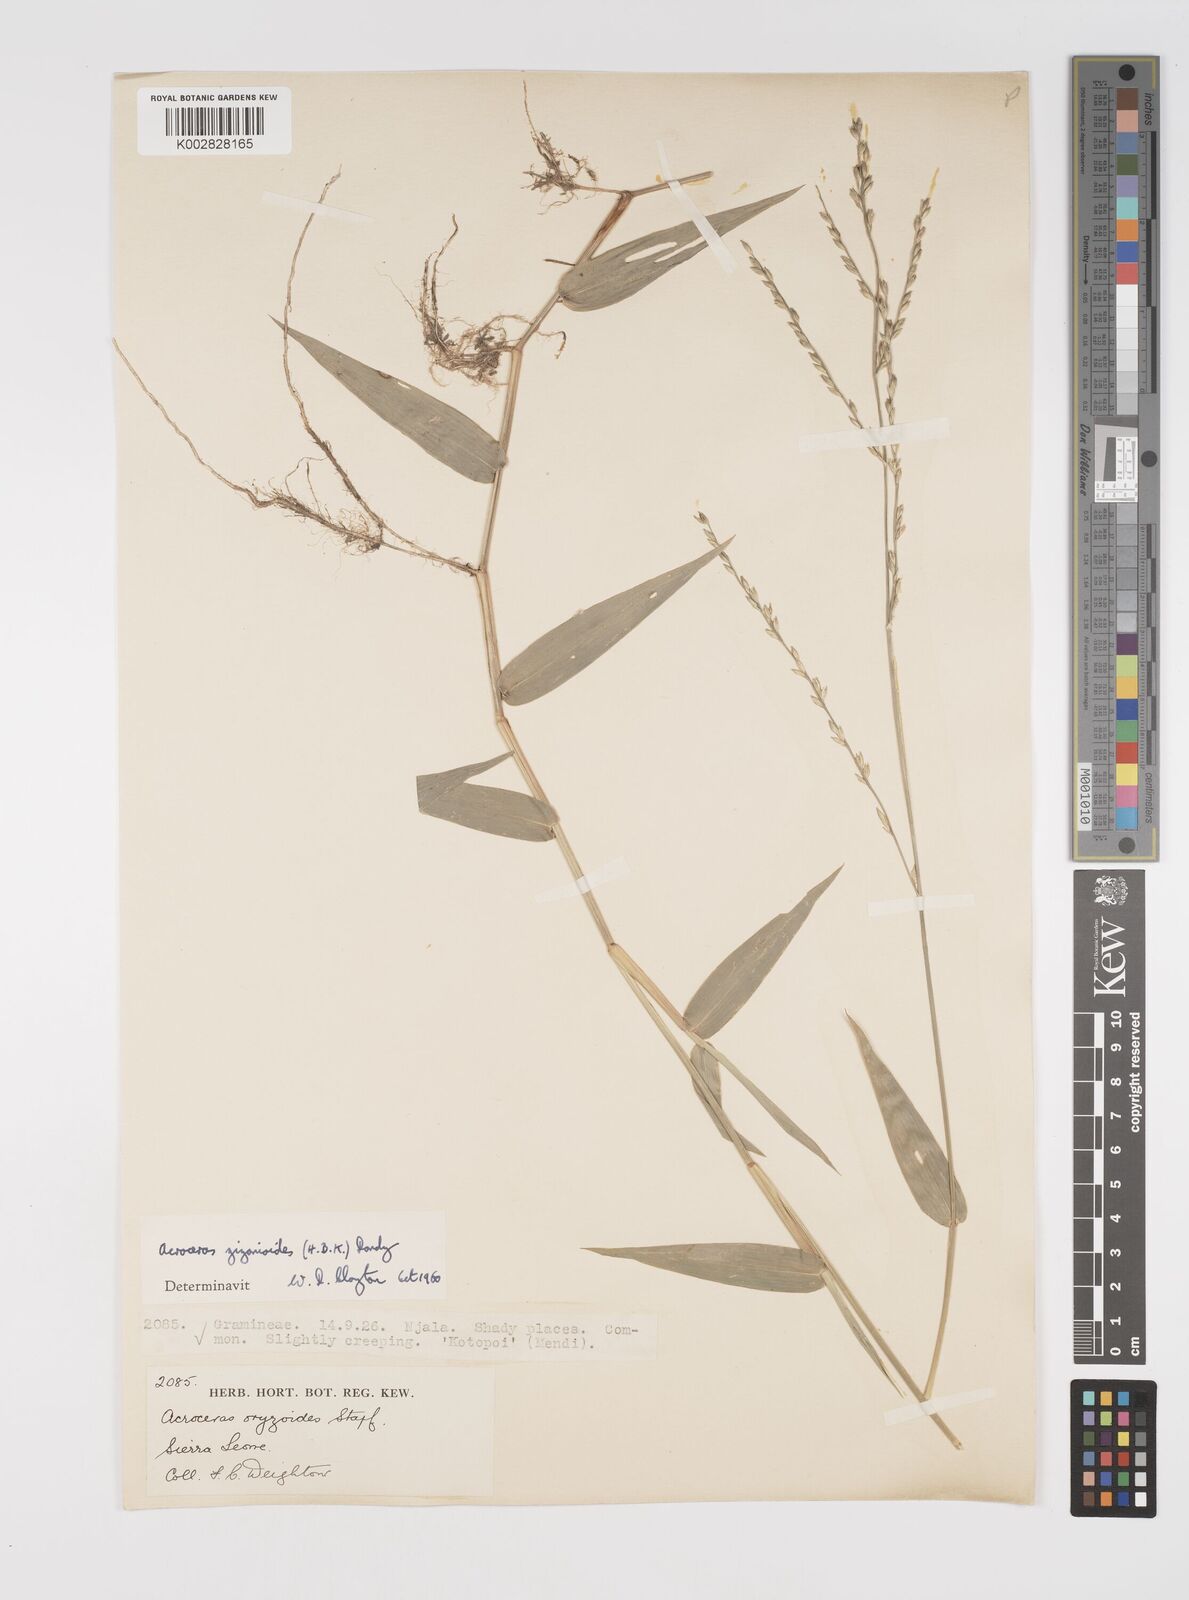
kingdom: Plantae
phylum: Tracheophyta
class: Liliopsida
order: Poales
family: Poaceae
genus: Acroceras
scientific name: Acroceras zizanioides
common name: Oat grass
